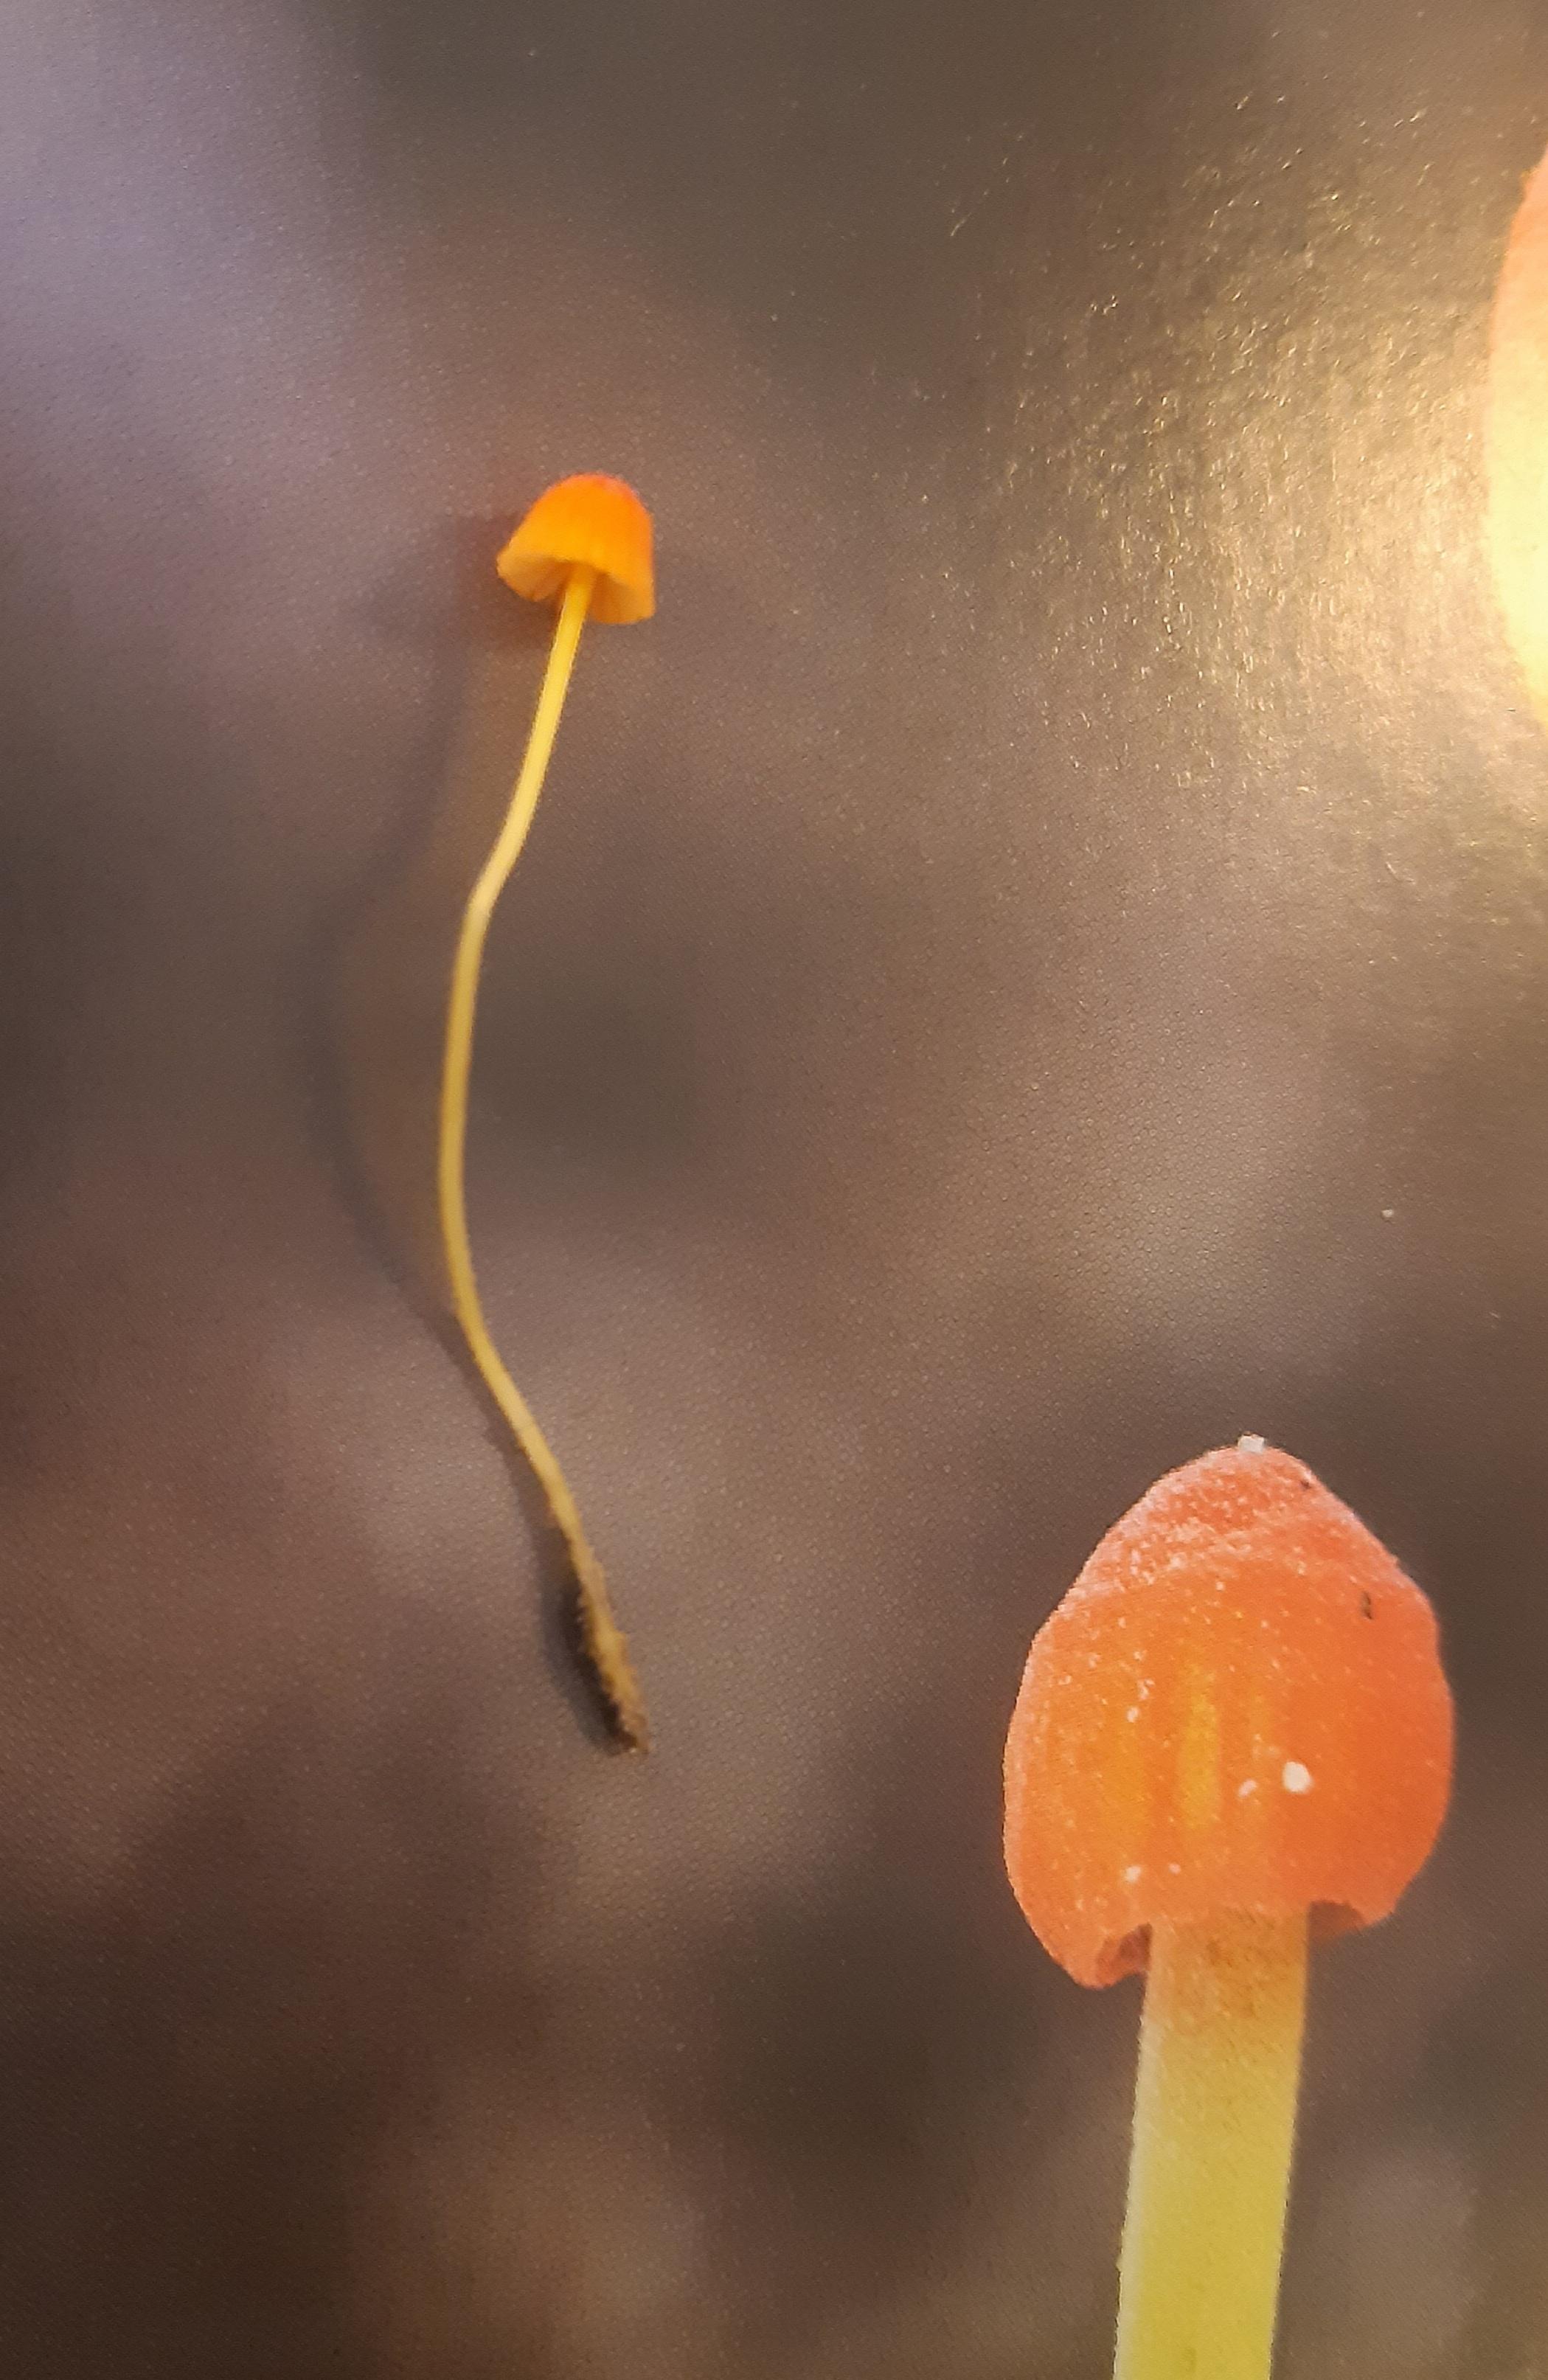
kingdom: Fungi
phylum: Basidiomycota
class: Agaricomycetes
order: Agaricales
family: Mycenaceae
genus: Mycena
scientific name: Mycena acicula
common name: orange huesvamp
